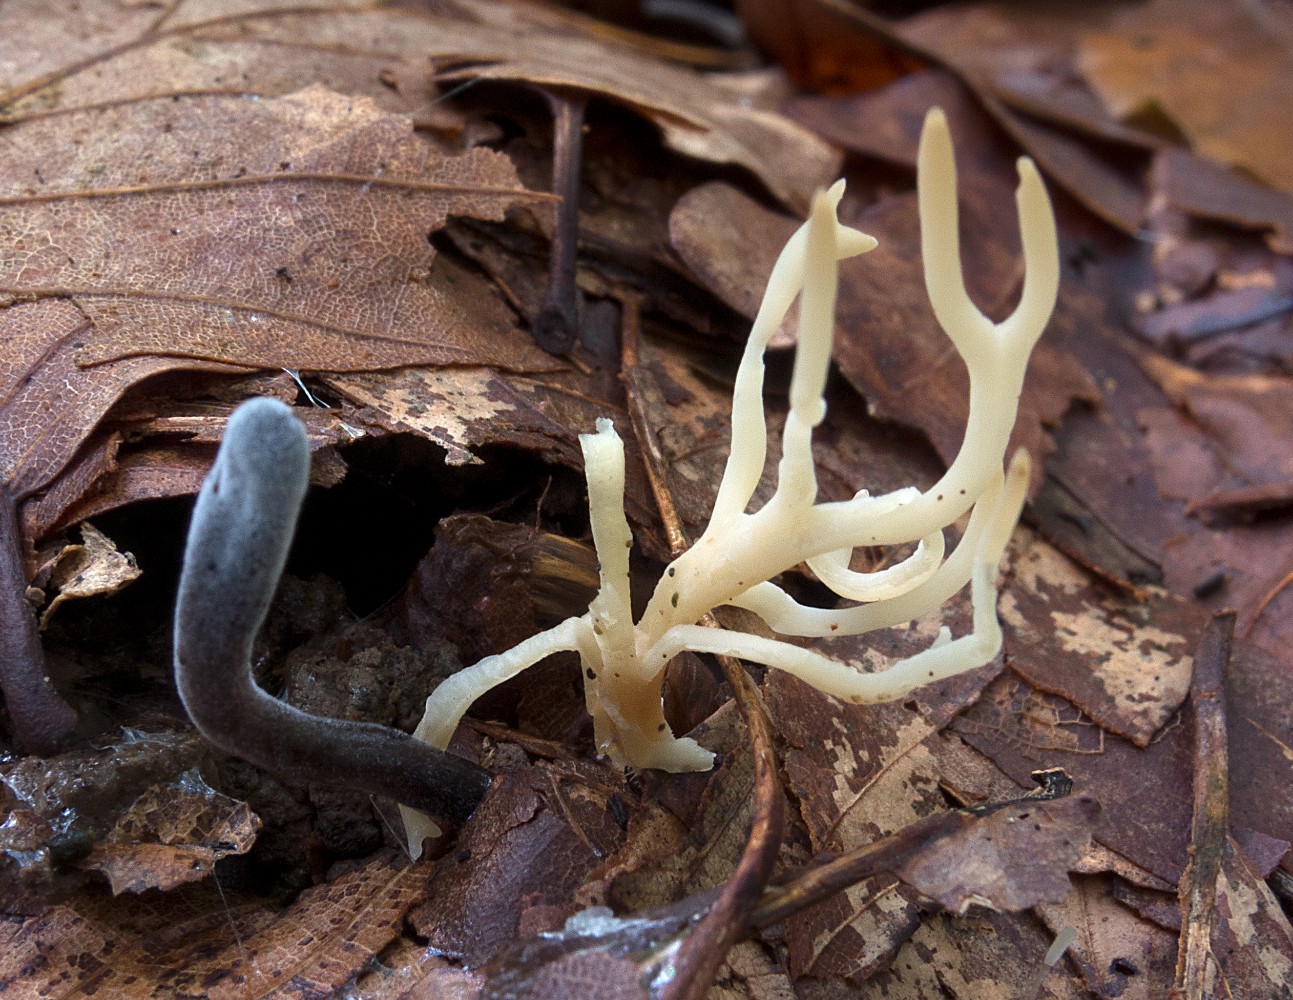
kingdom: Fungi
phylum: Basidiomycota
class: Agaricomycetes
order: Agaricales
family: Clavariaceae
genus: Ramariopsis
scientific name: Ramariopsis tenuicula
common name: spinkel køllesvamp
